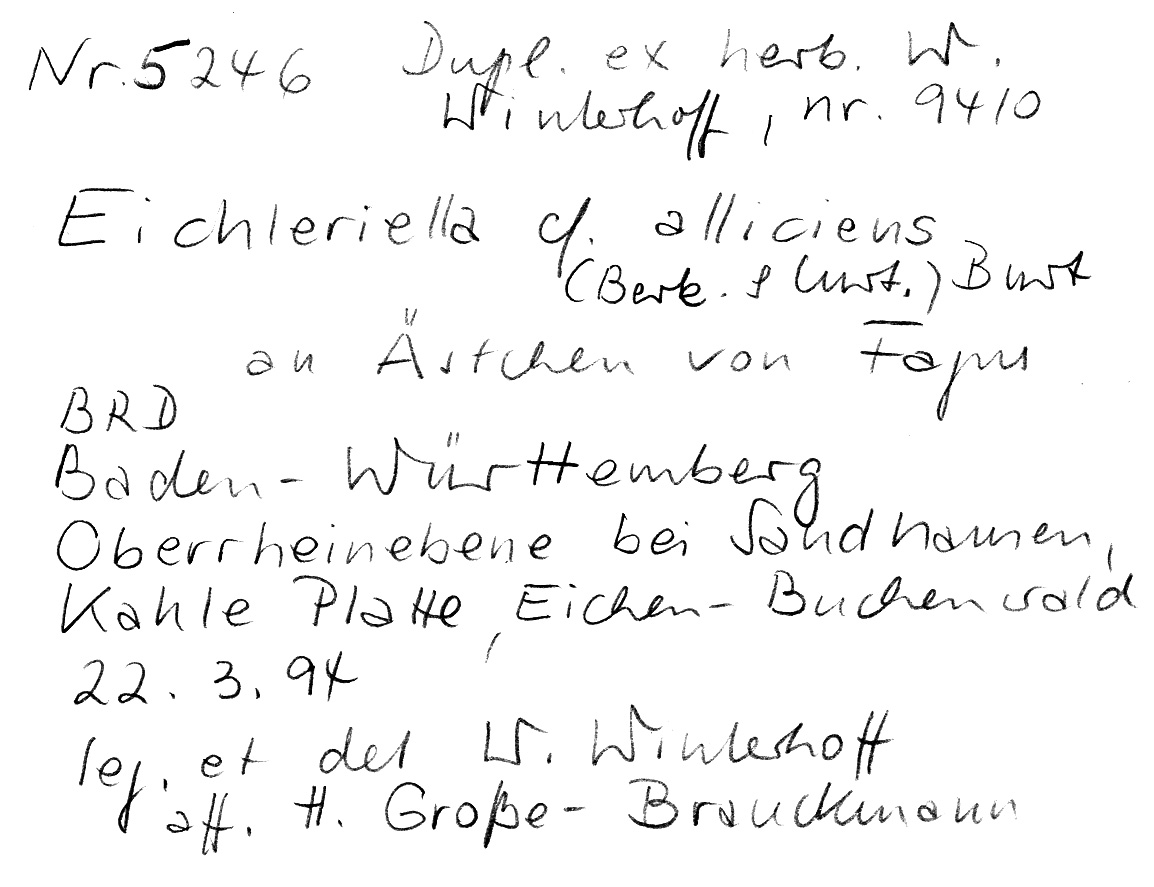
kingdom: Plantae
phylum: Tracheophyta
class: Magnoliopsida
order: Fagales
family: Fagaceae
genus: Fagus
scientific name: Fagus sylvatica
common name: Beech
